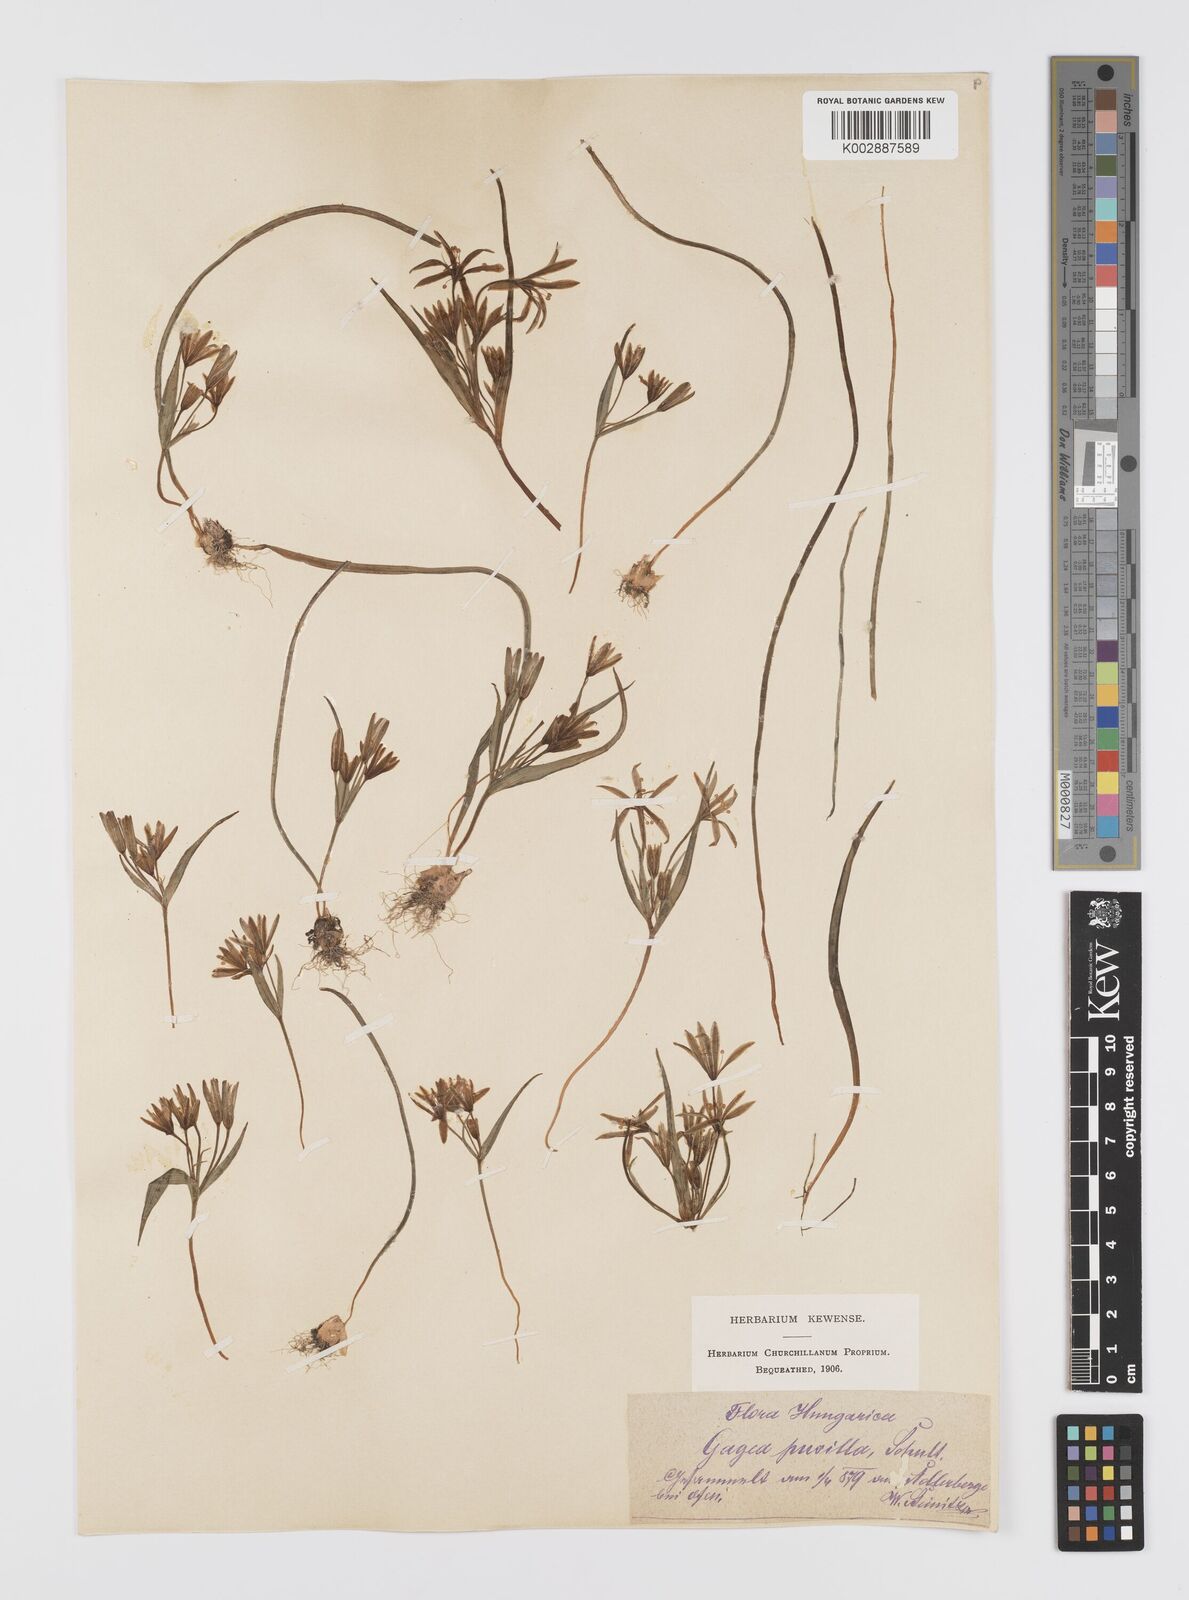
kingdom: Plantae
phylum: Tracheophyta
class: Liliopsida
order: Liliales
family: Liliaceae
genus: Gagea
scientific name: Gagea pusilla
